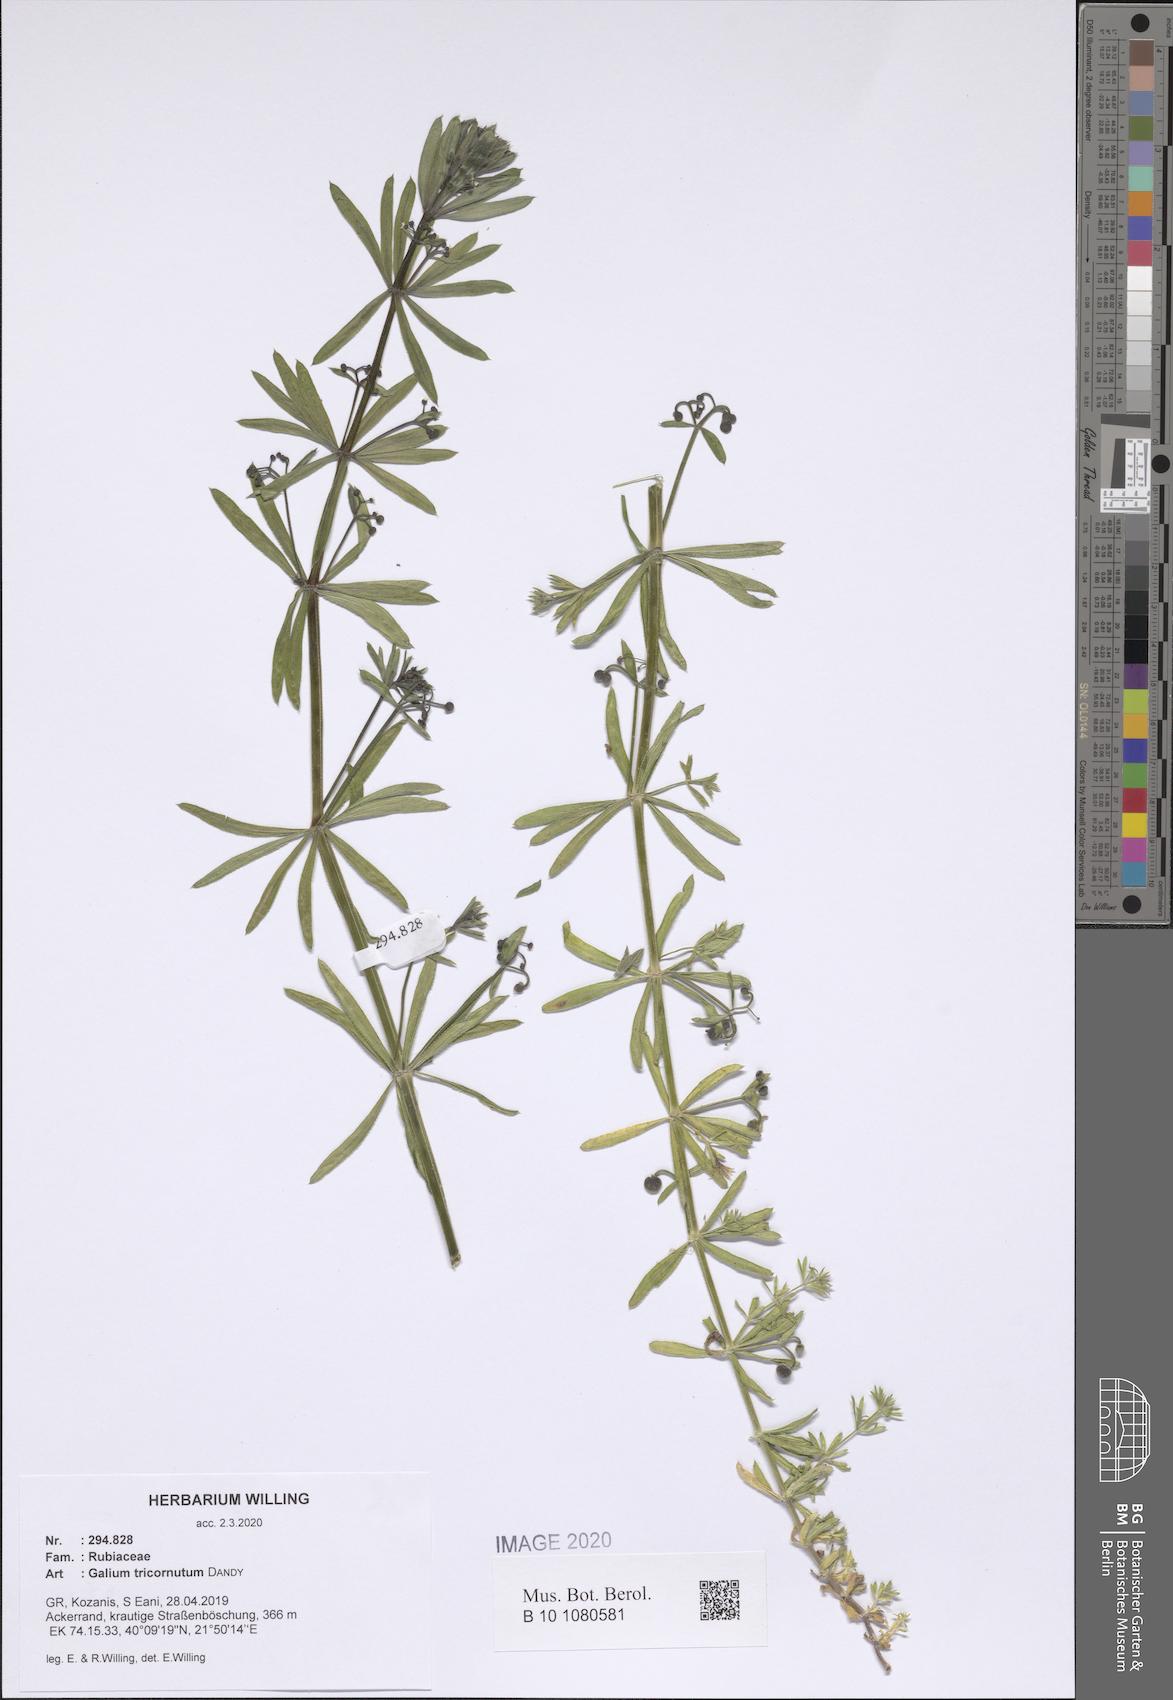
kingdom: Plantae
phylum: Tracheophyta
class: Magnoliopsida
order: Gentianales
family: Rubiaceae
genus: Galium
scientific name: Galium tricornutum
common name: Corn cleavers
